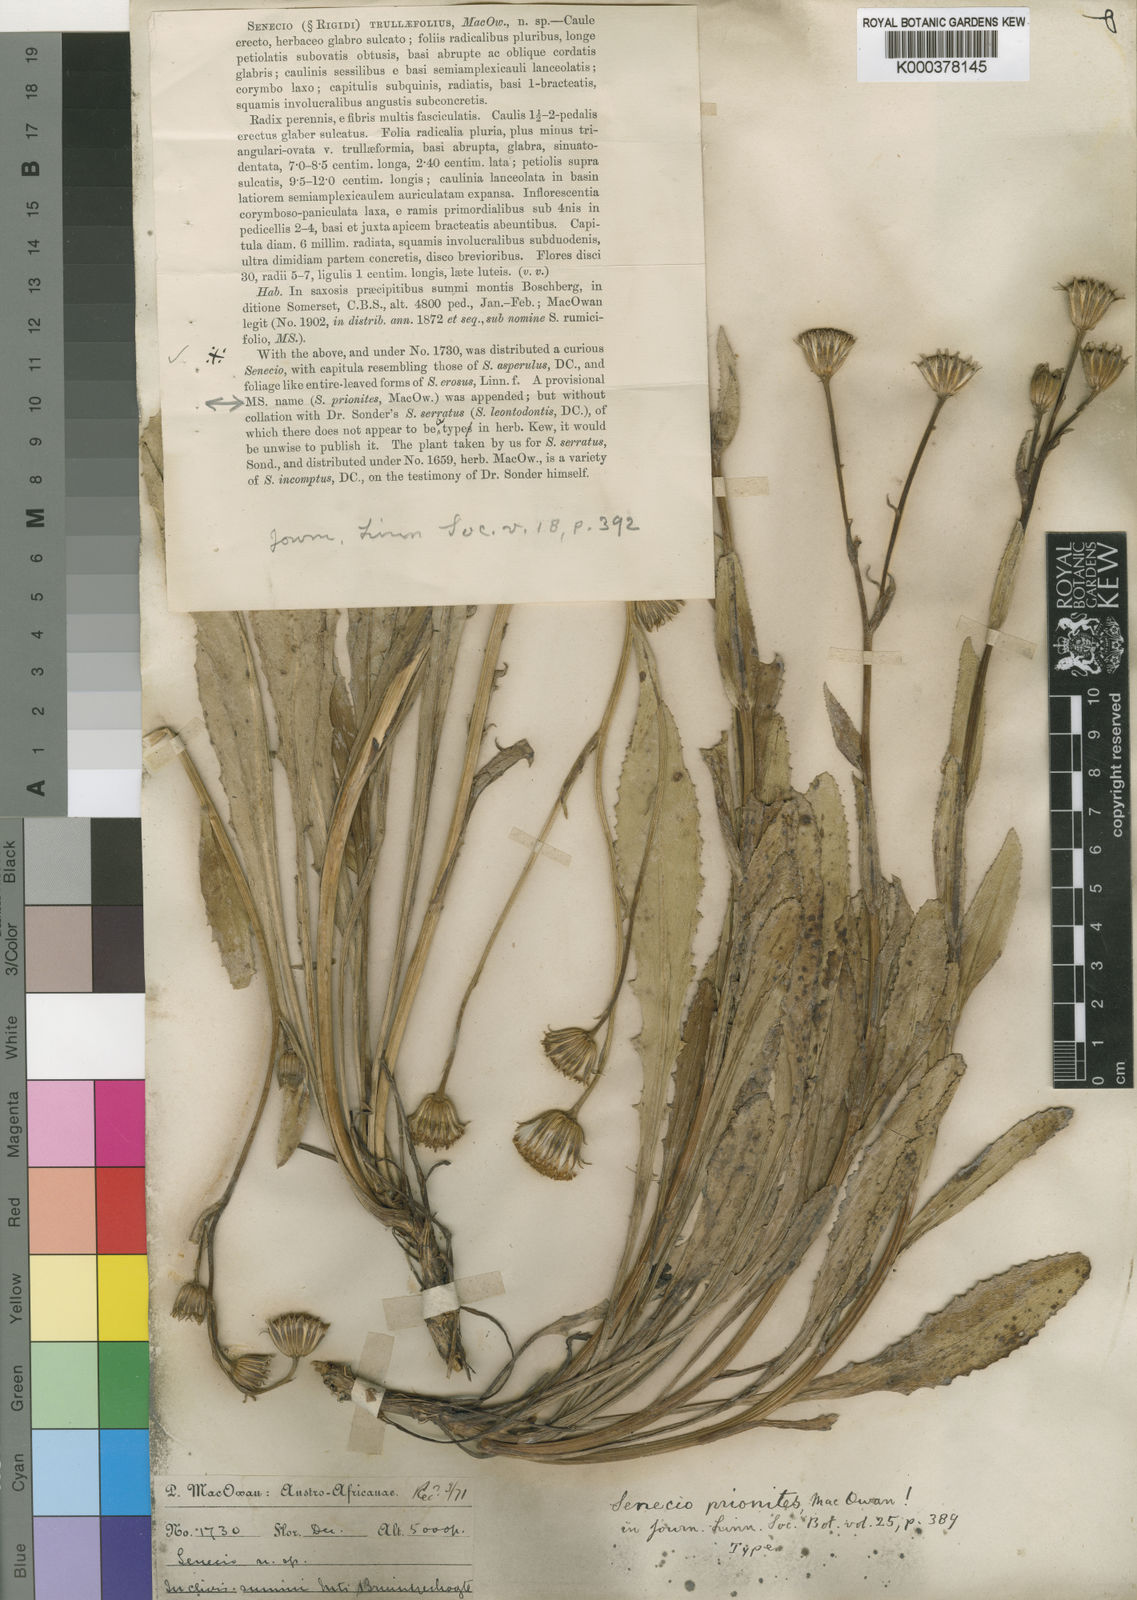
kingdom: Plantae
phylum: Tracheophyta
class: Magnoliopsida
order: Asterales
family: Asteraceae
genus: Senecio
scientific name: Senecio hypochoerideus
